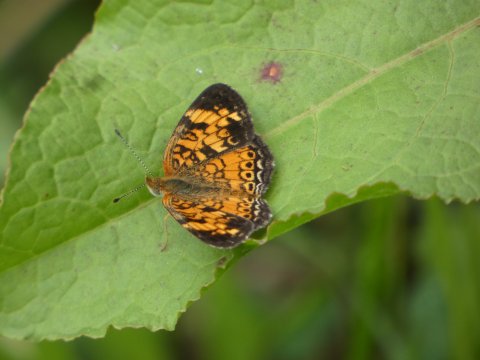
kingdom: Animalia
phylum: Arthropoda
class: Insecta
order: Lepidoptera
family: Nymphalidae
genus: Phyciodes
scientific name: Phyciodes tharos
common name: Pearl Crescent
